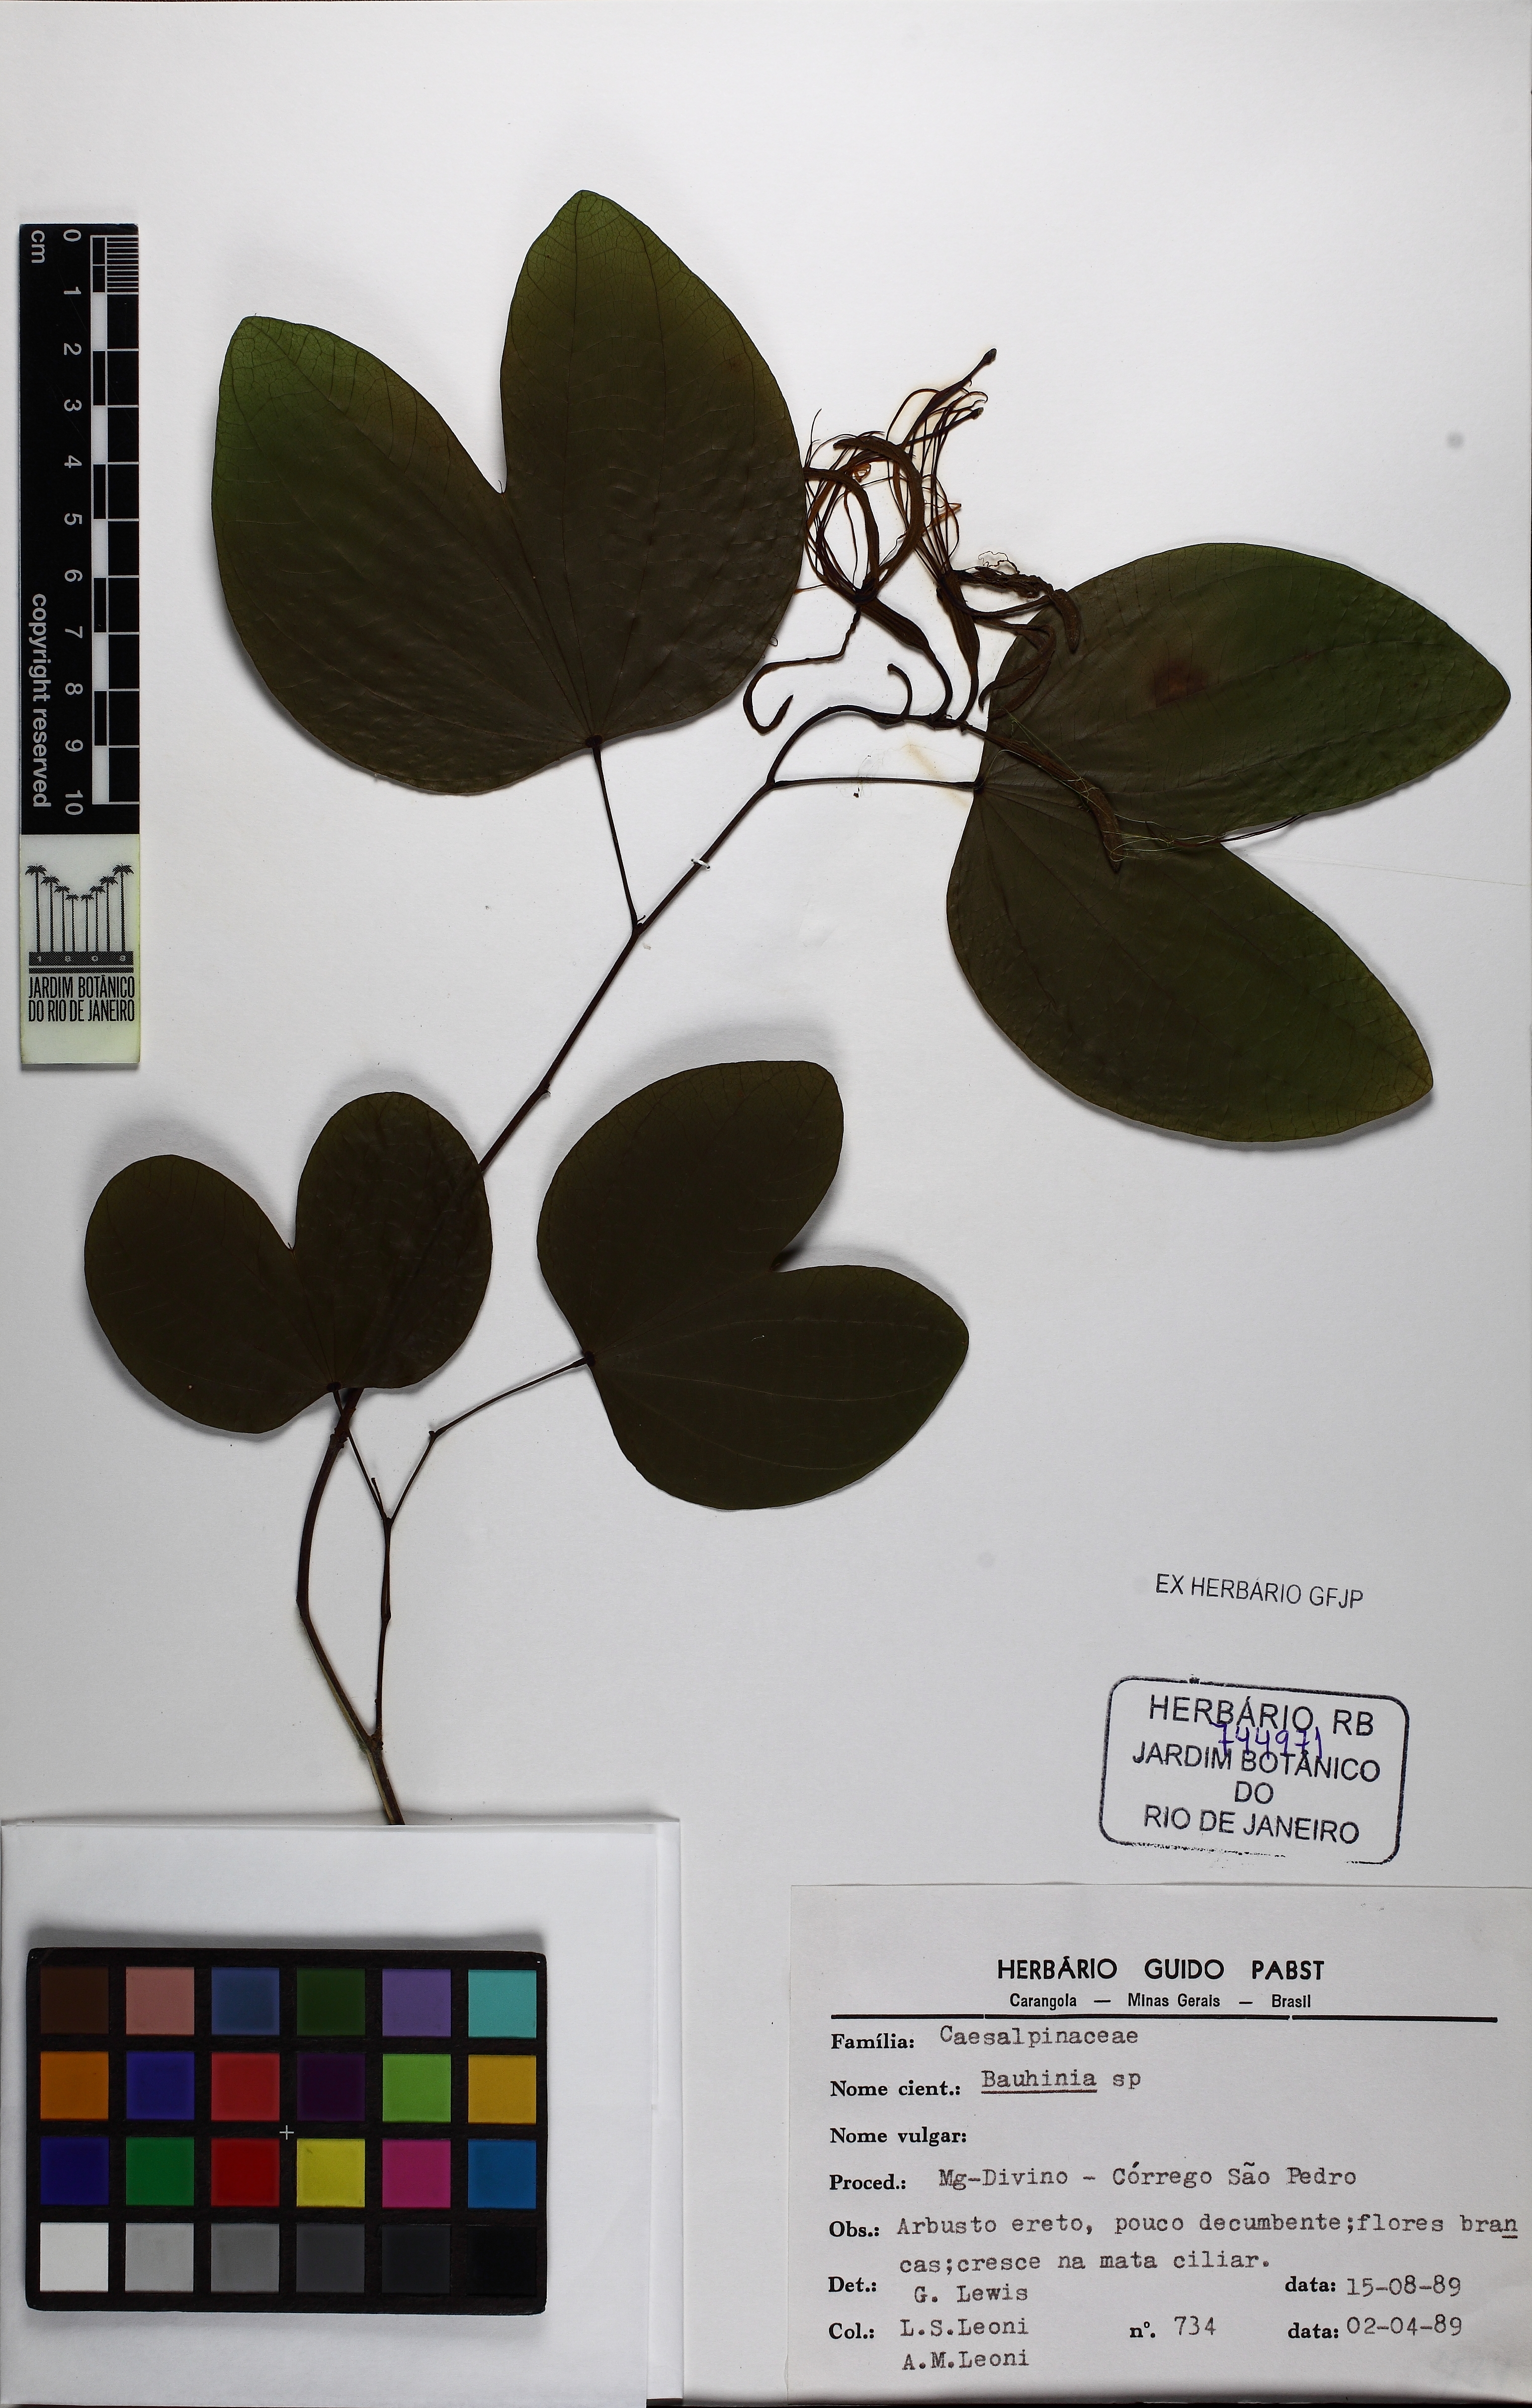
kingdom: Plantae
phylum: Tracheophyta
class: Magnoliopsida
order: Fabales
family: Fabaceae
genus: Bauhinia
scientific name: Bauhinia
